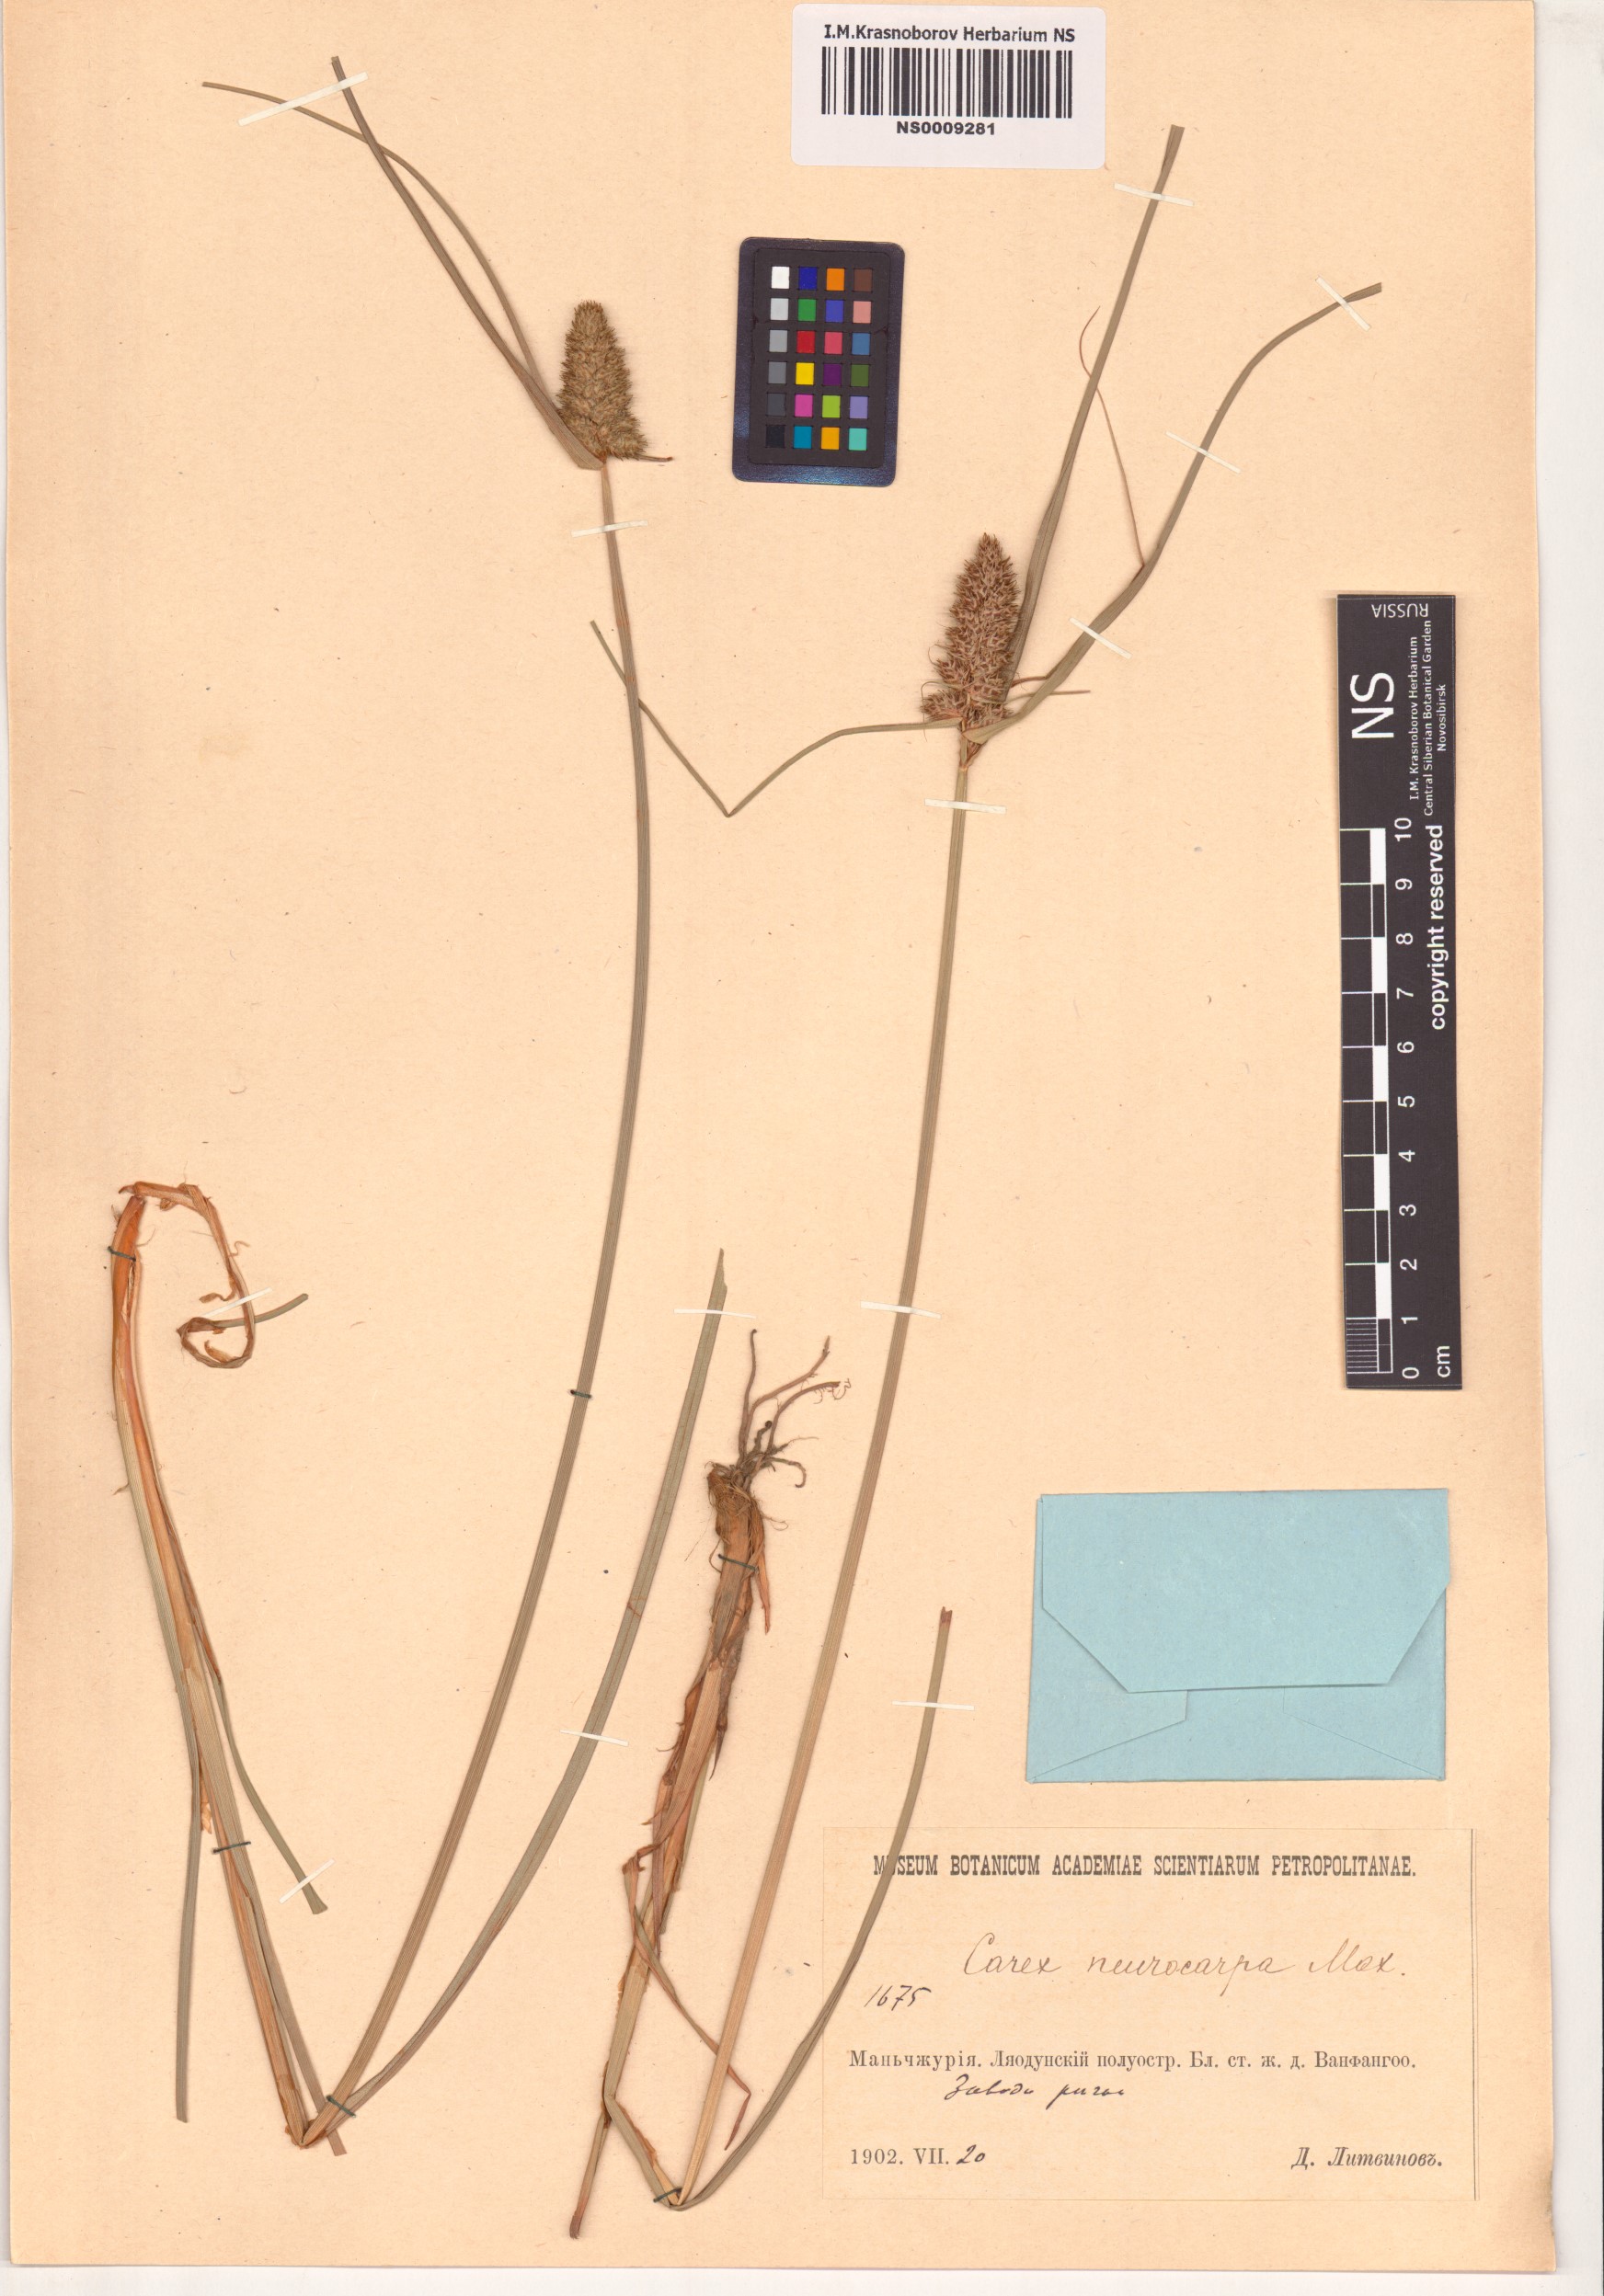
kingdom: Plantae
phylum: Tracheophyta
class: Liliopsida
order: Poales
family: Cyperaceae
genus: Carex
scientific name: Carex neurocarpa
